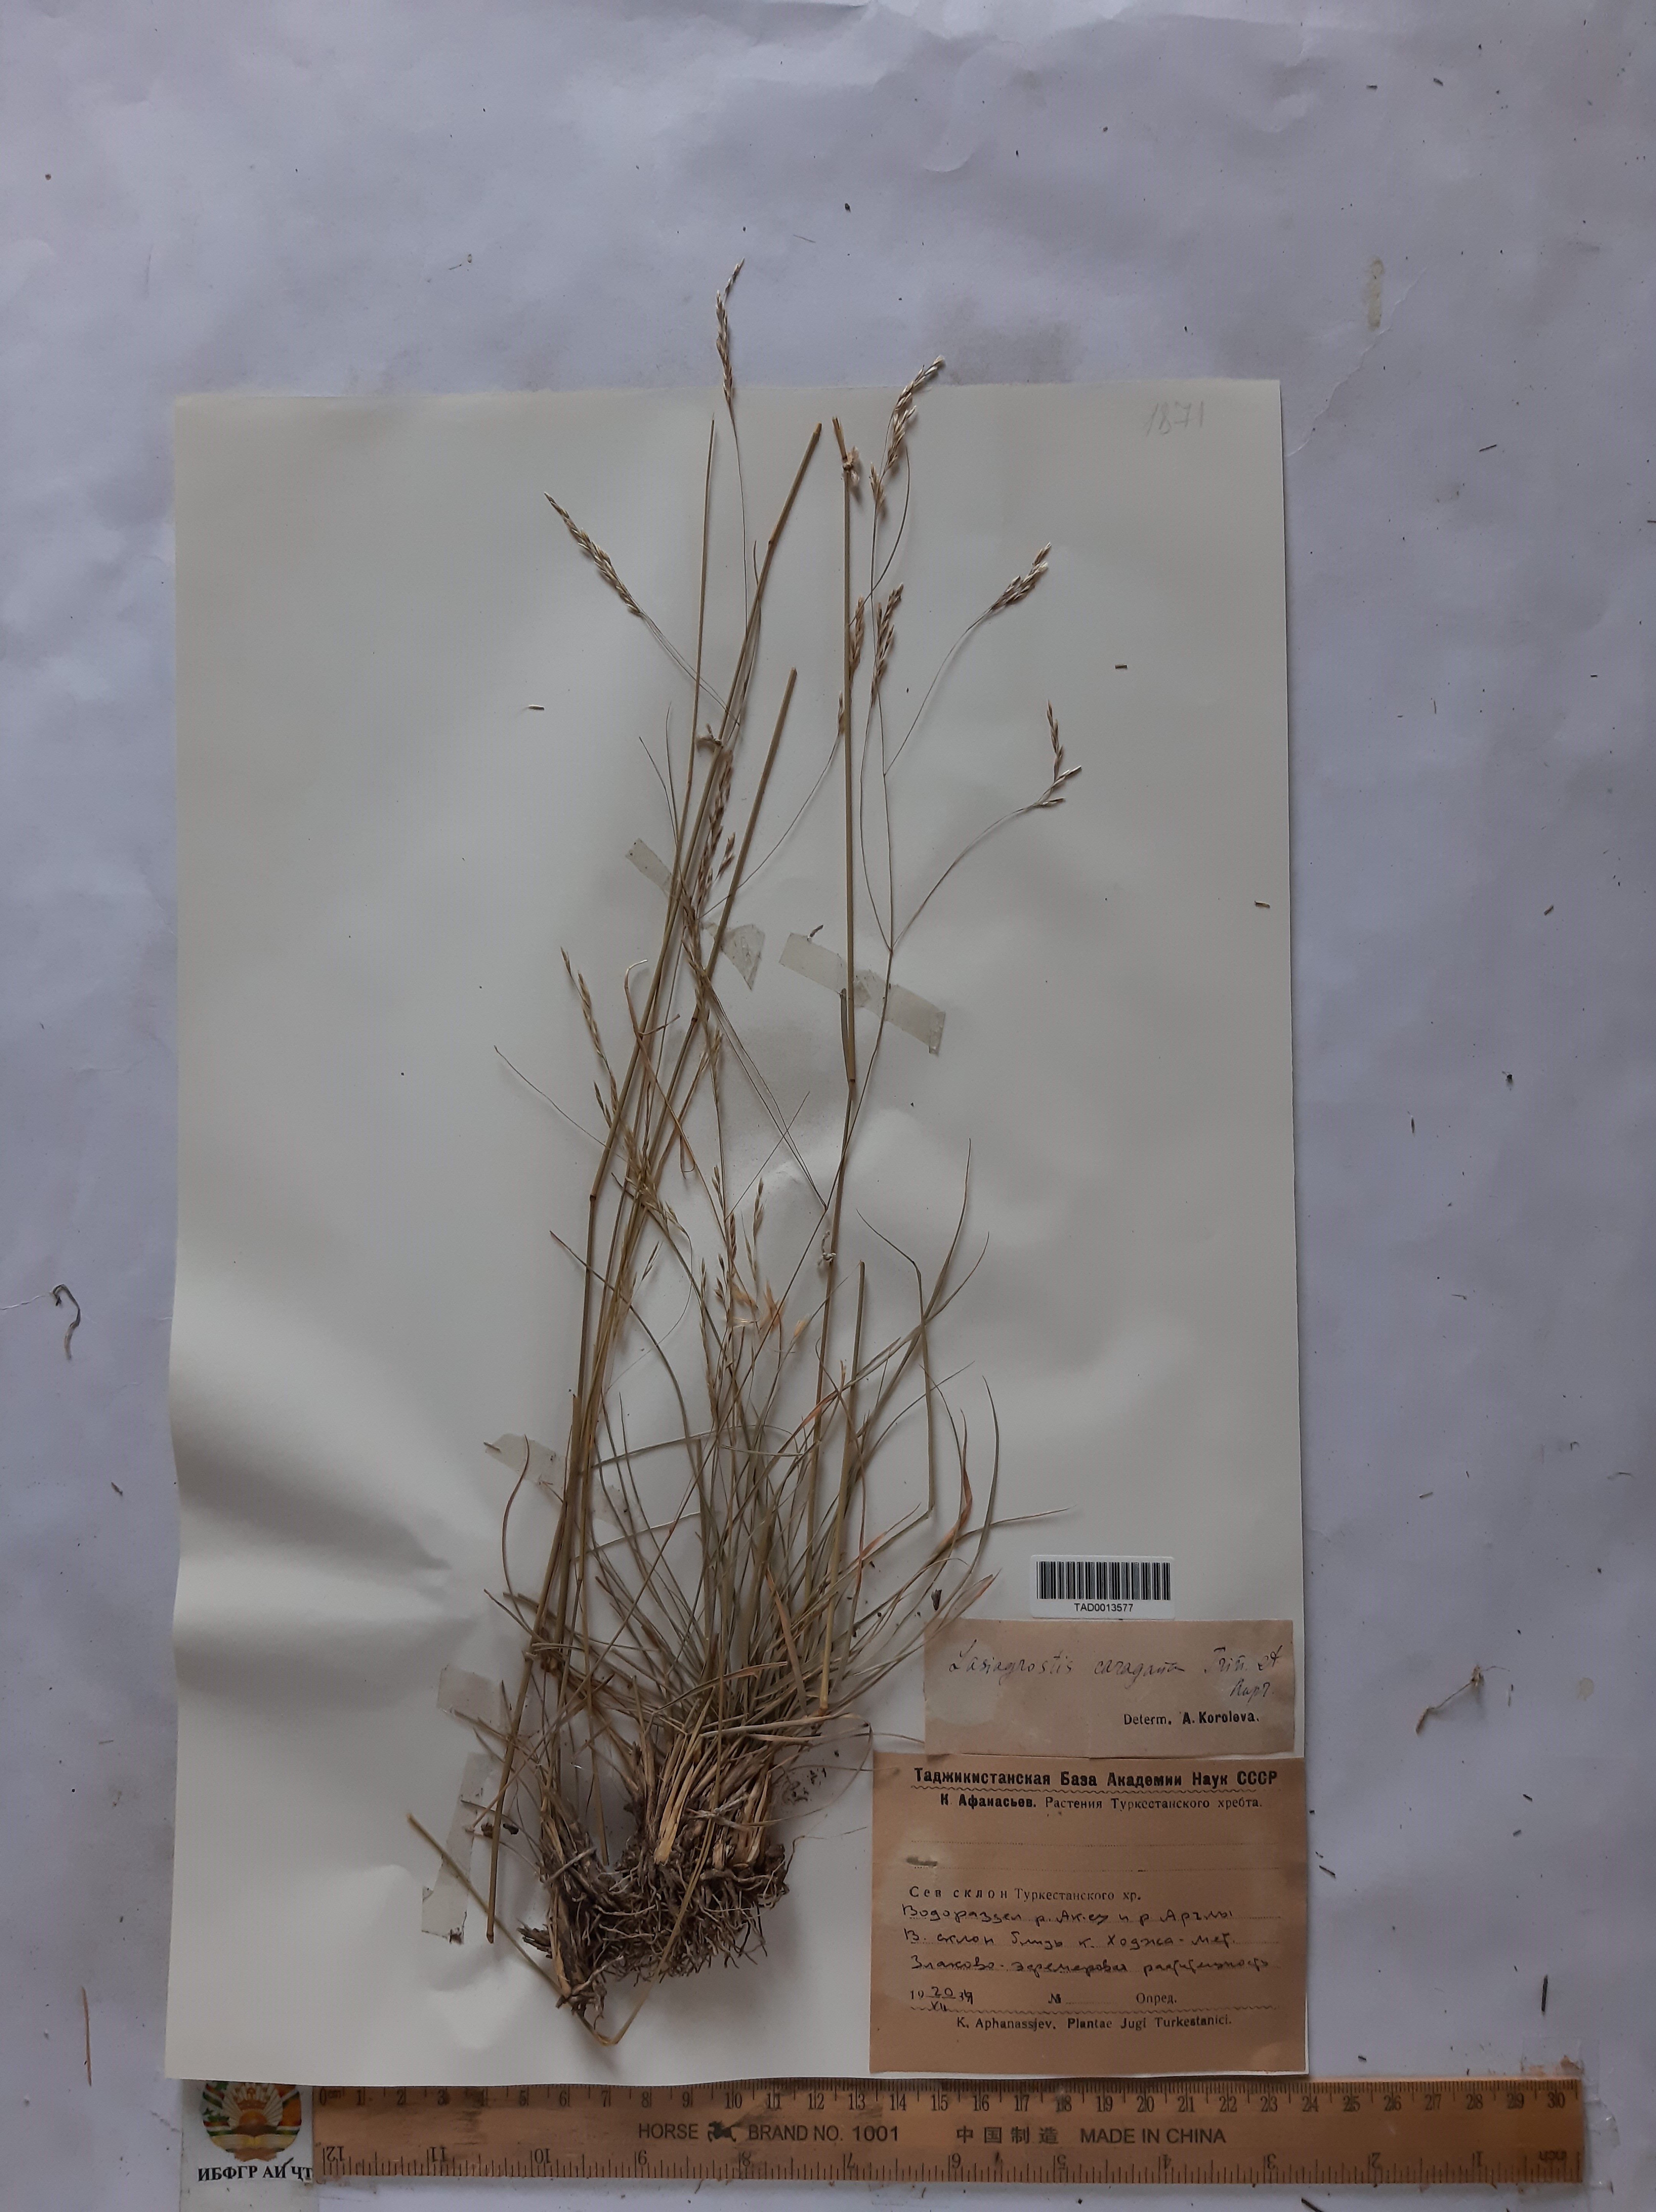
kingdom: Plantae
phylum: Tracheophyta
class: Liliopsida
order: Poales
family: Poaceae
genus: Stipa
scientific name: Stipa conferta
